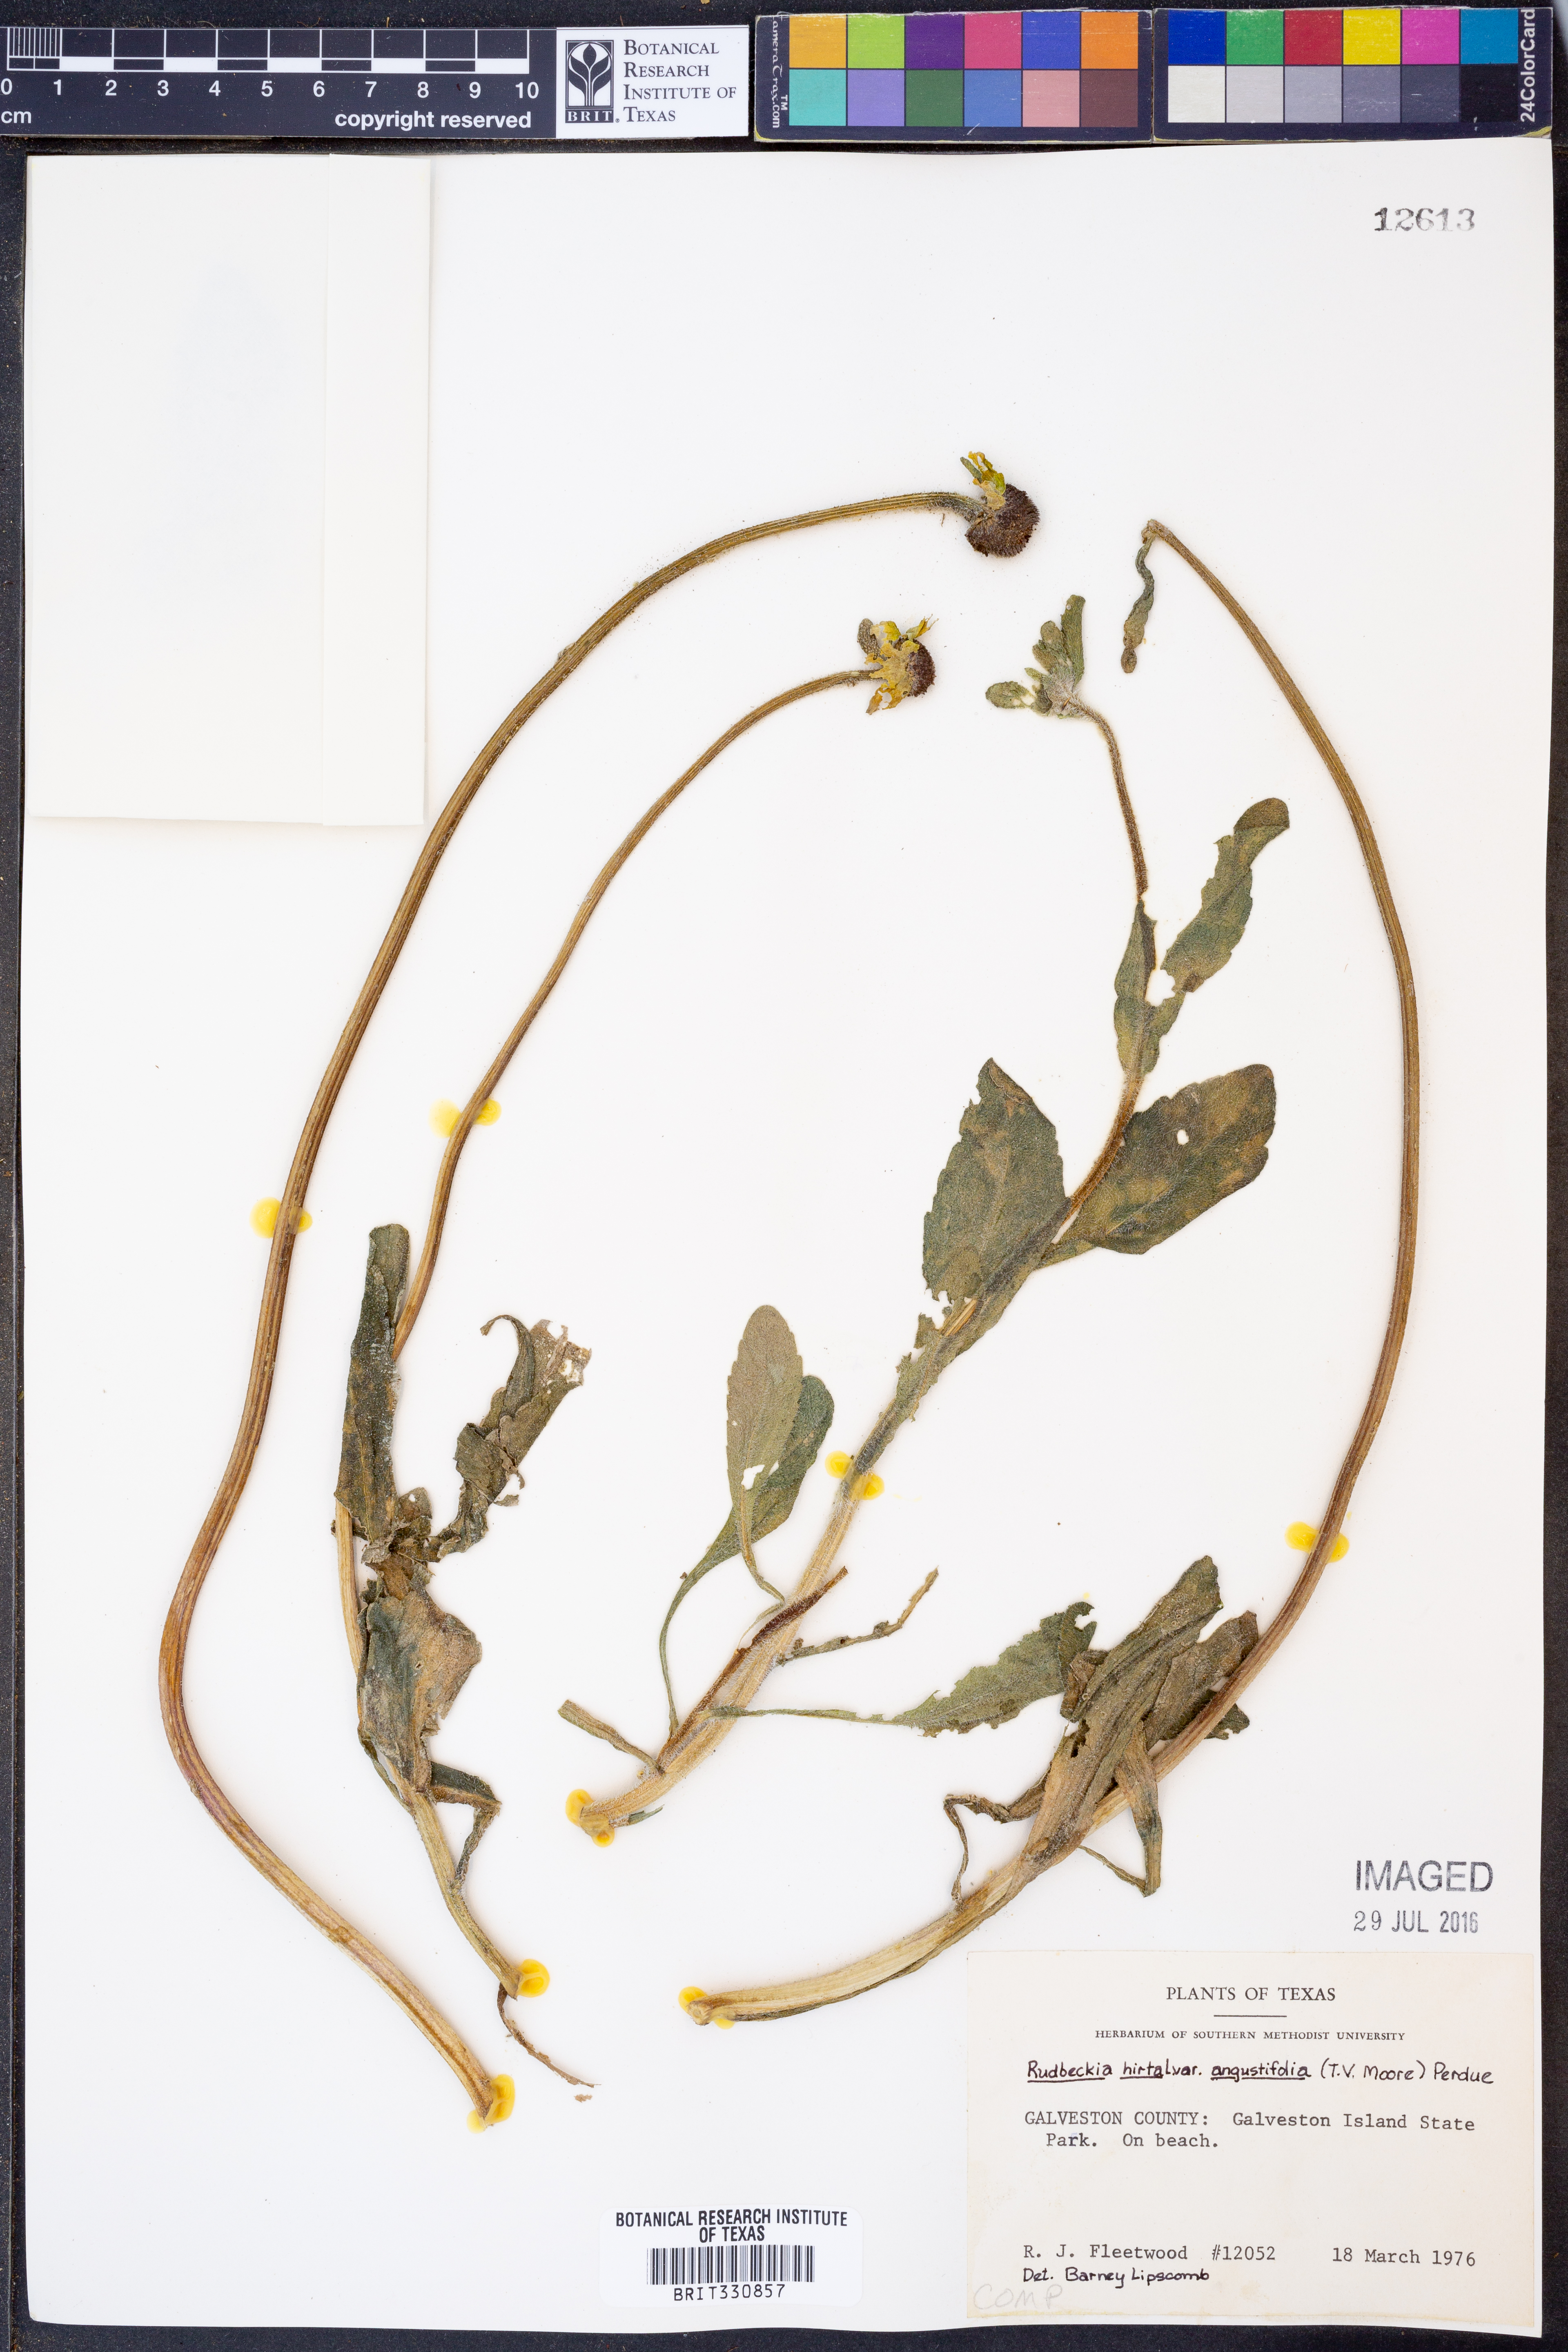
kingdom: Plantae
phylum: Tracheophyta
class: Magnoliopsida
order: Asterales
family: Asteraceae
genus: Rudbeckia
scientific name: Rudbeckia hirta
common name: Black-eyed-susan
